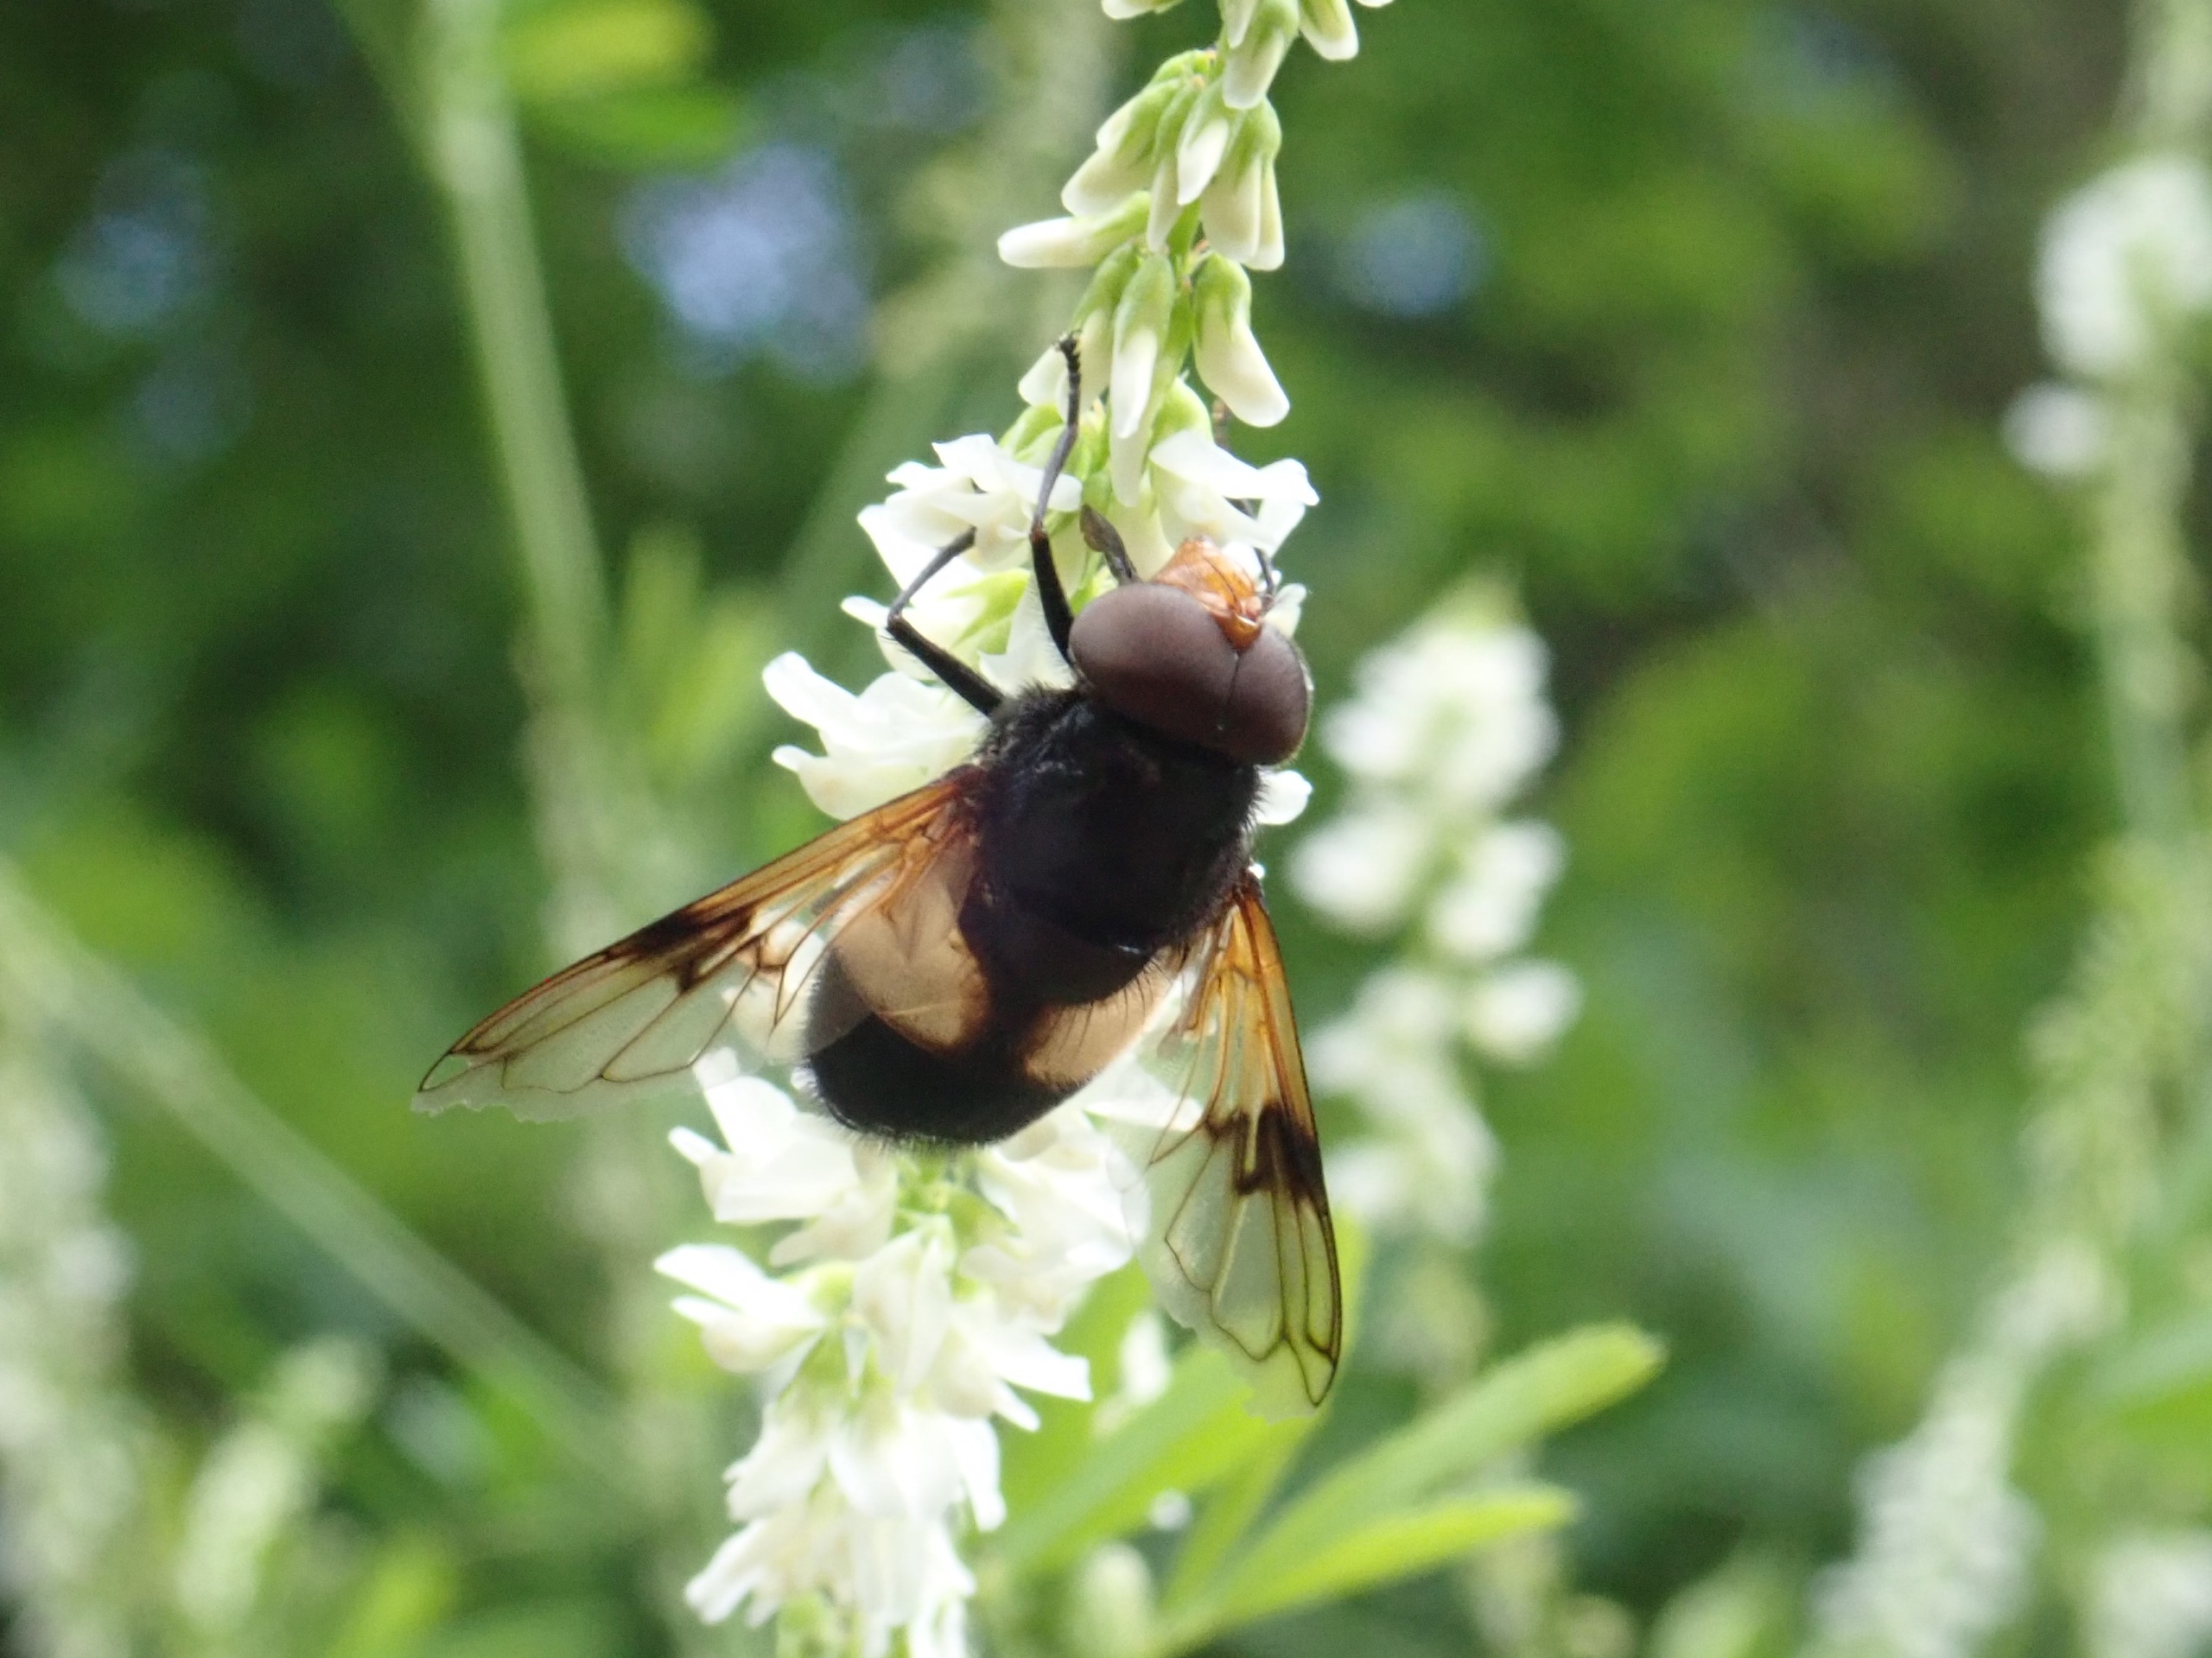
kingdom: Animalia
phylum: Arthropoda
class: Insecta
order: Diptera
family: Syrphidae
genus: Volucella
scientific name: Volucella pellucens
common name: Hvidbåndet humlesvirreflue
